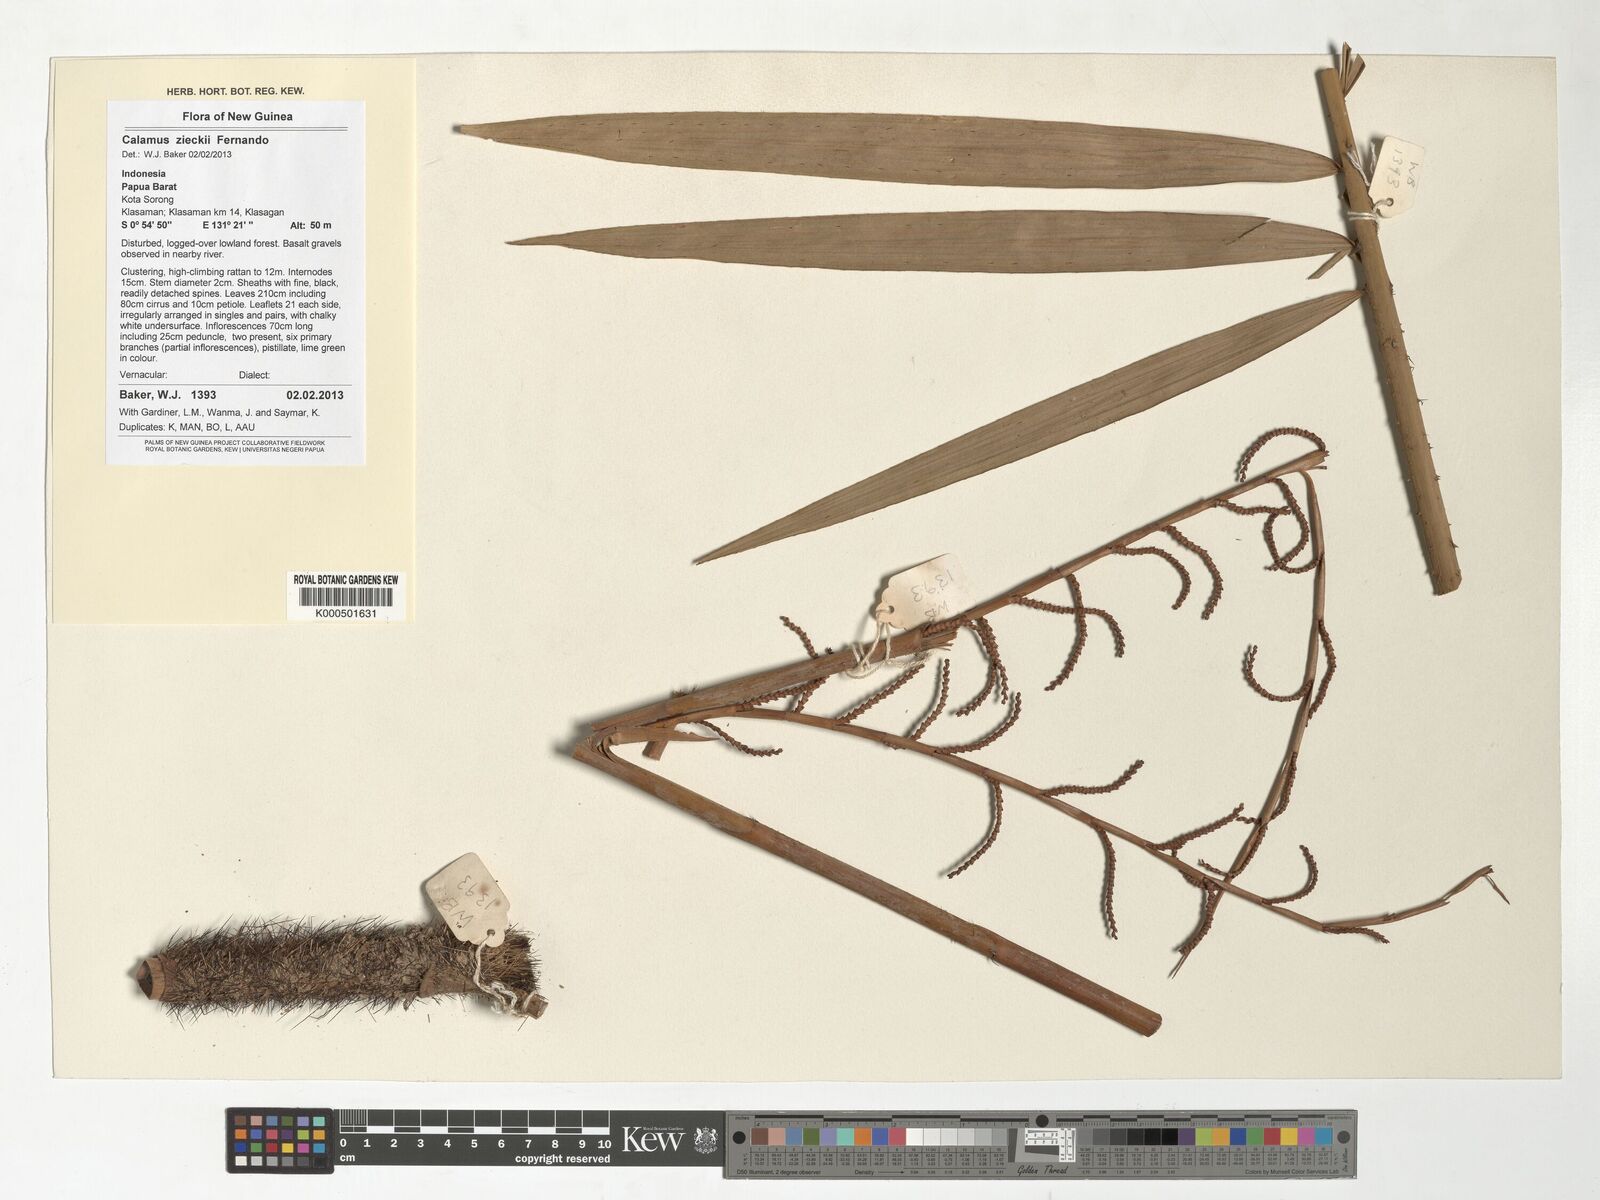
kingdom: Plantae
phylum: Tracheophyta
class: Liliopsida
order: Arecales
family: Arecaceae
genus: Calamus
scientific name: Calamus zieckii
